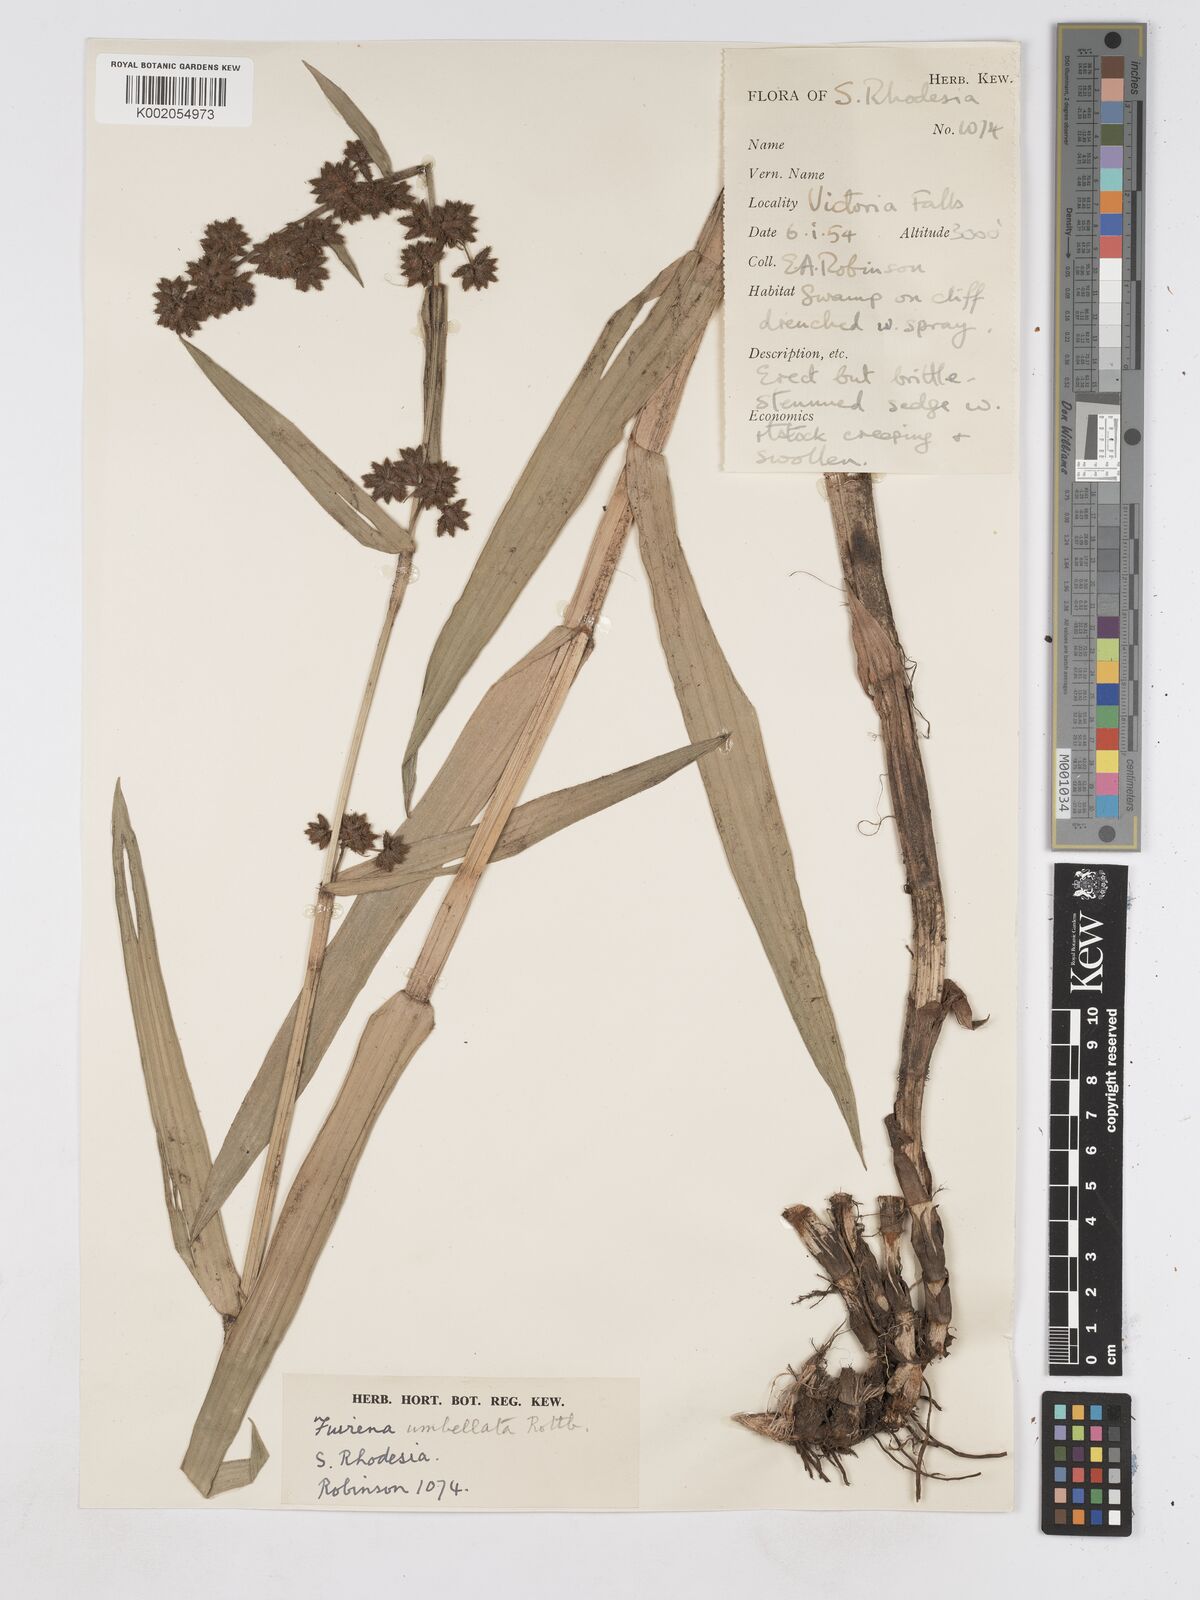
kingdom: Plantae
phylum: Tracheophyta
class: Liliopsida
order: Poales
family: Cyperaceae
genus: Fuirena
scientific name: Fuirena umbellata
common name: Yefen
